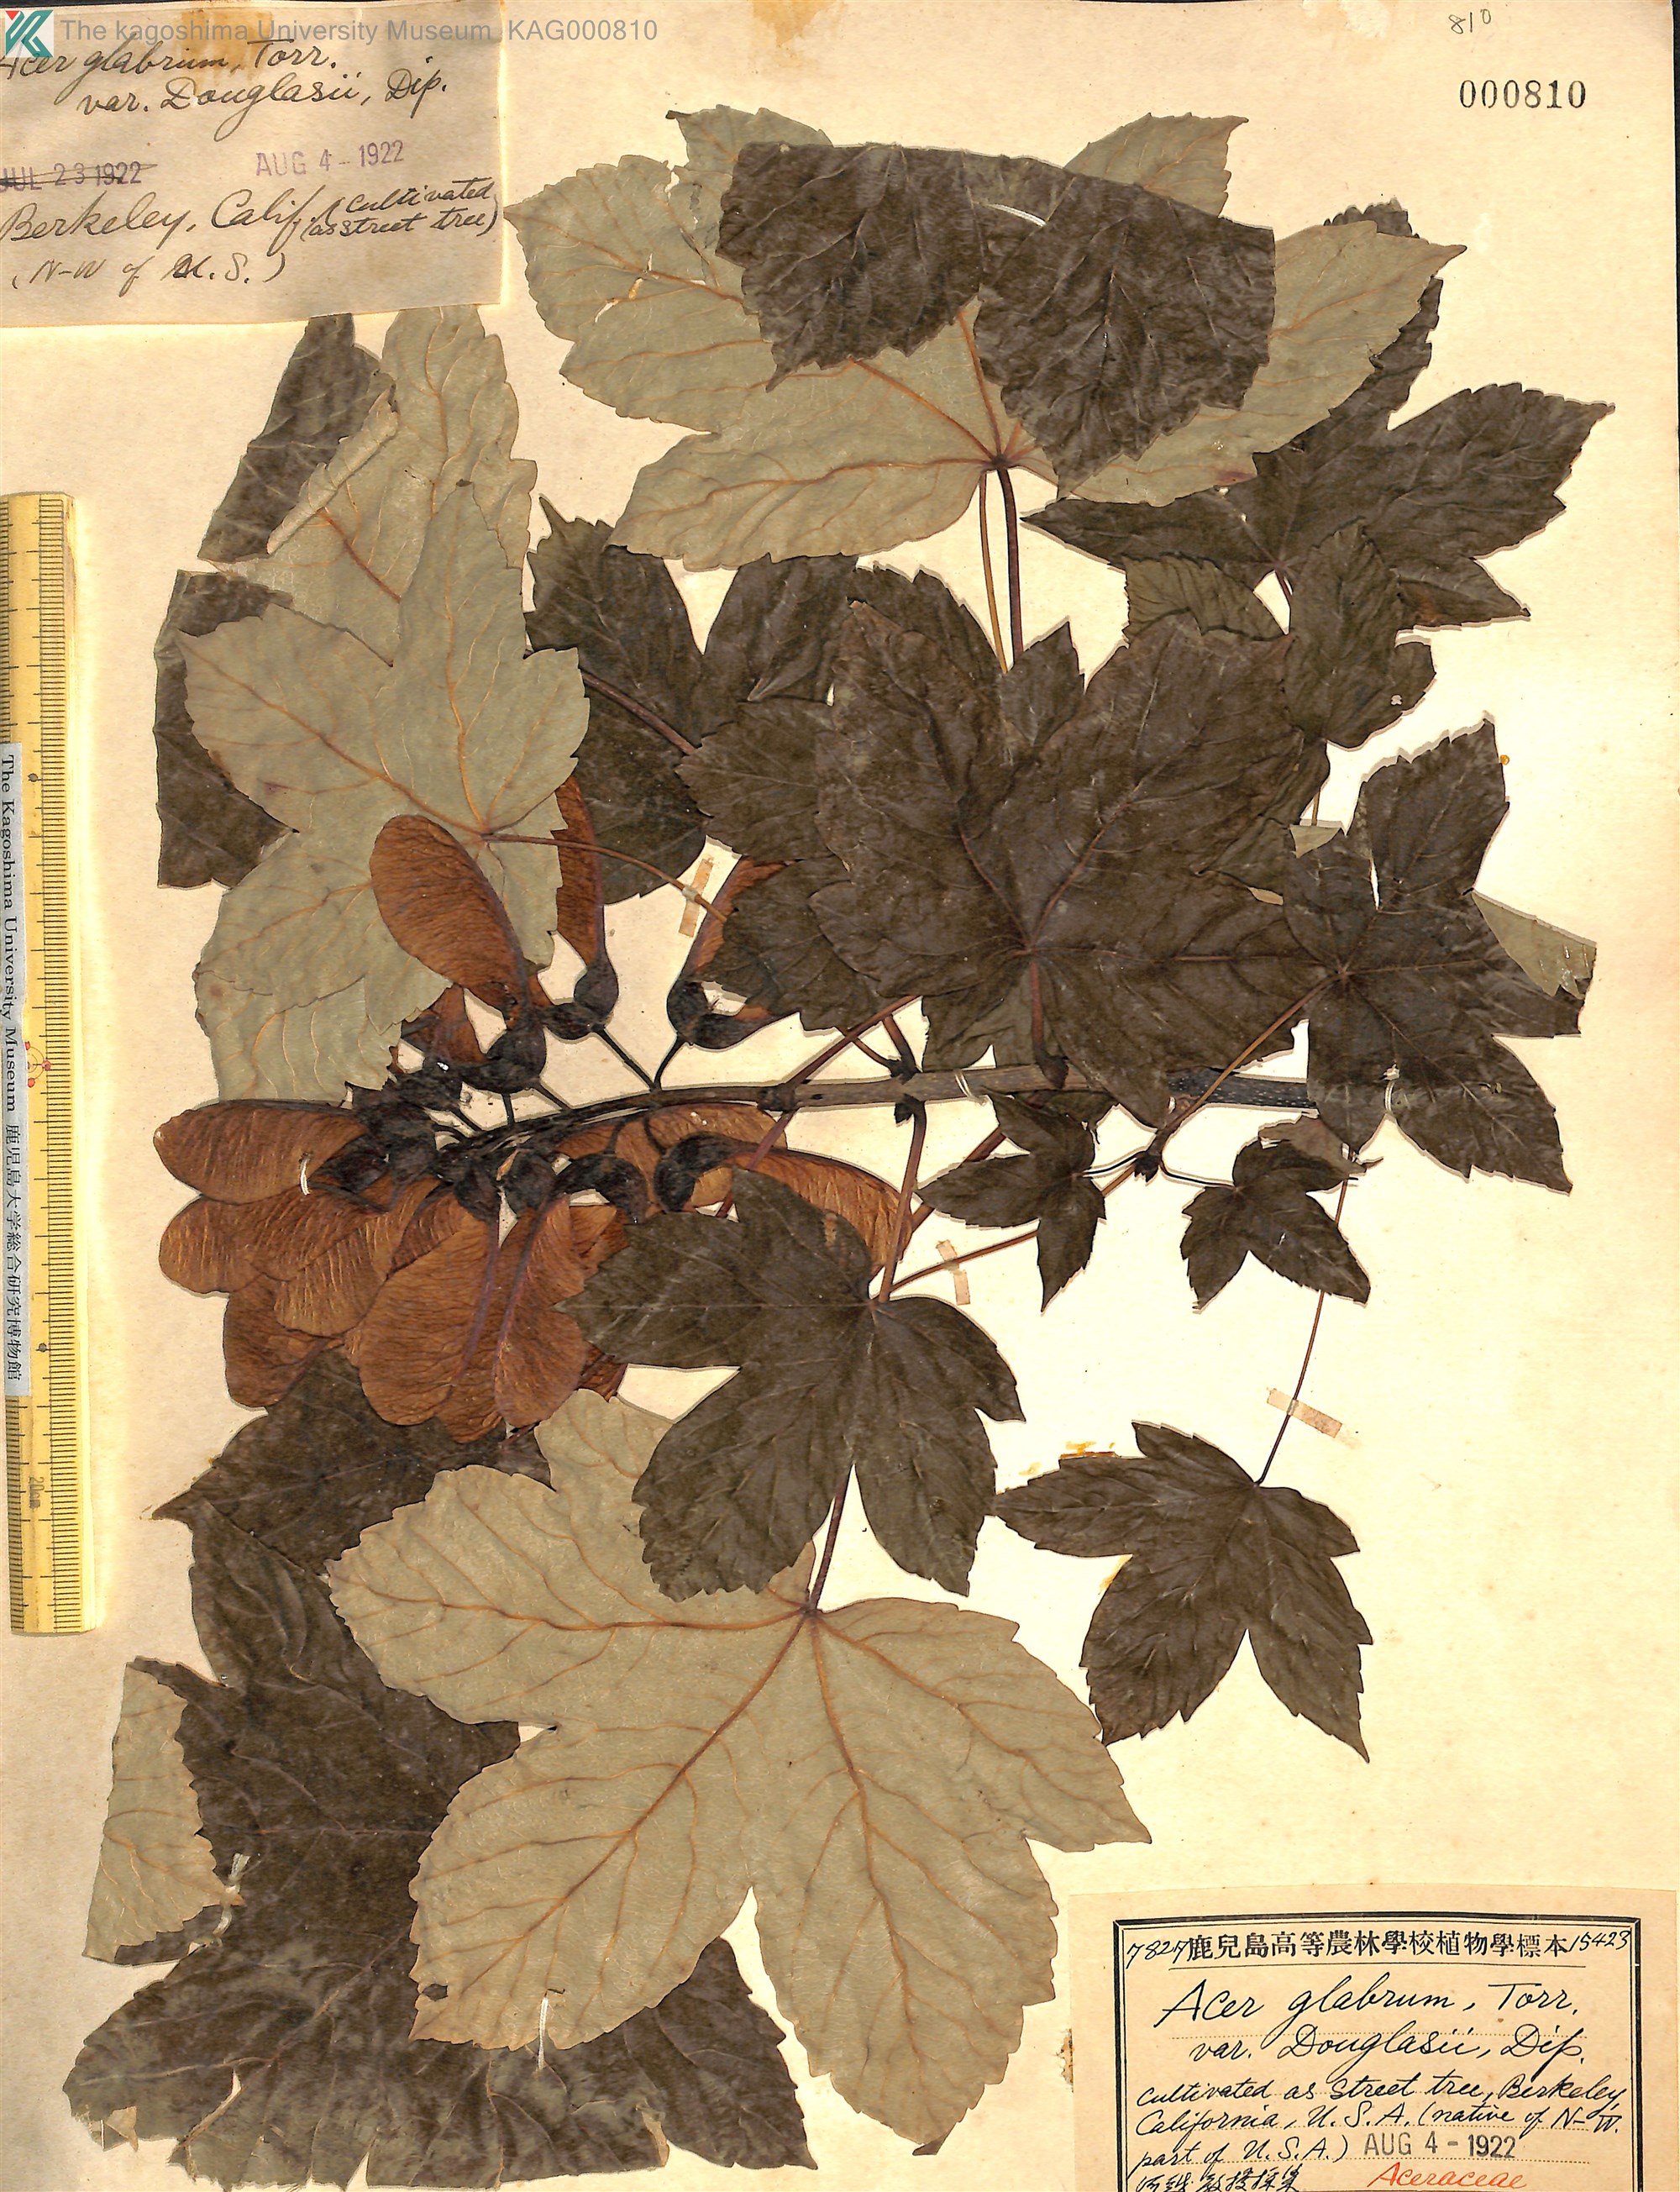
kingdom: Plantae
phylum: Tracheophyta
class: Magnoliopsida
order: Sapindales
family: Sapindaceae
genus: Acer
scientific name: Acer glabrum
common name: Rocky mountain maple
